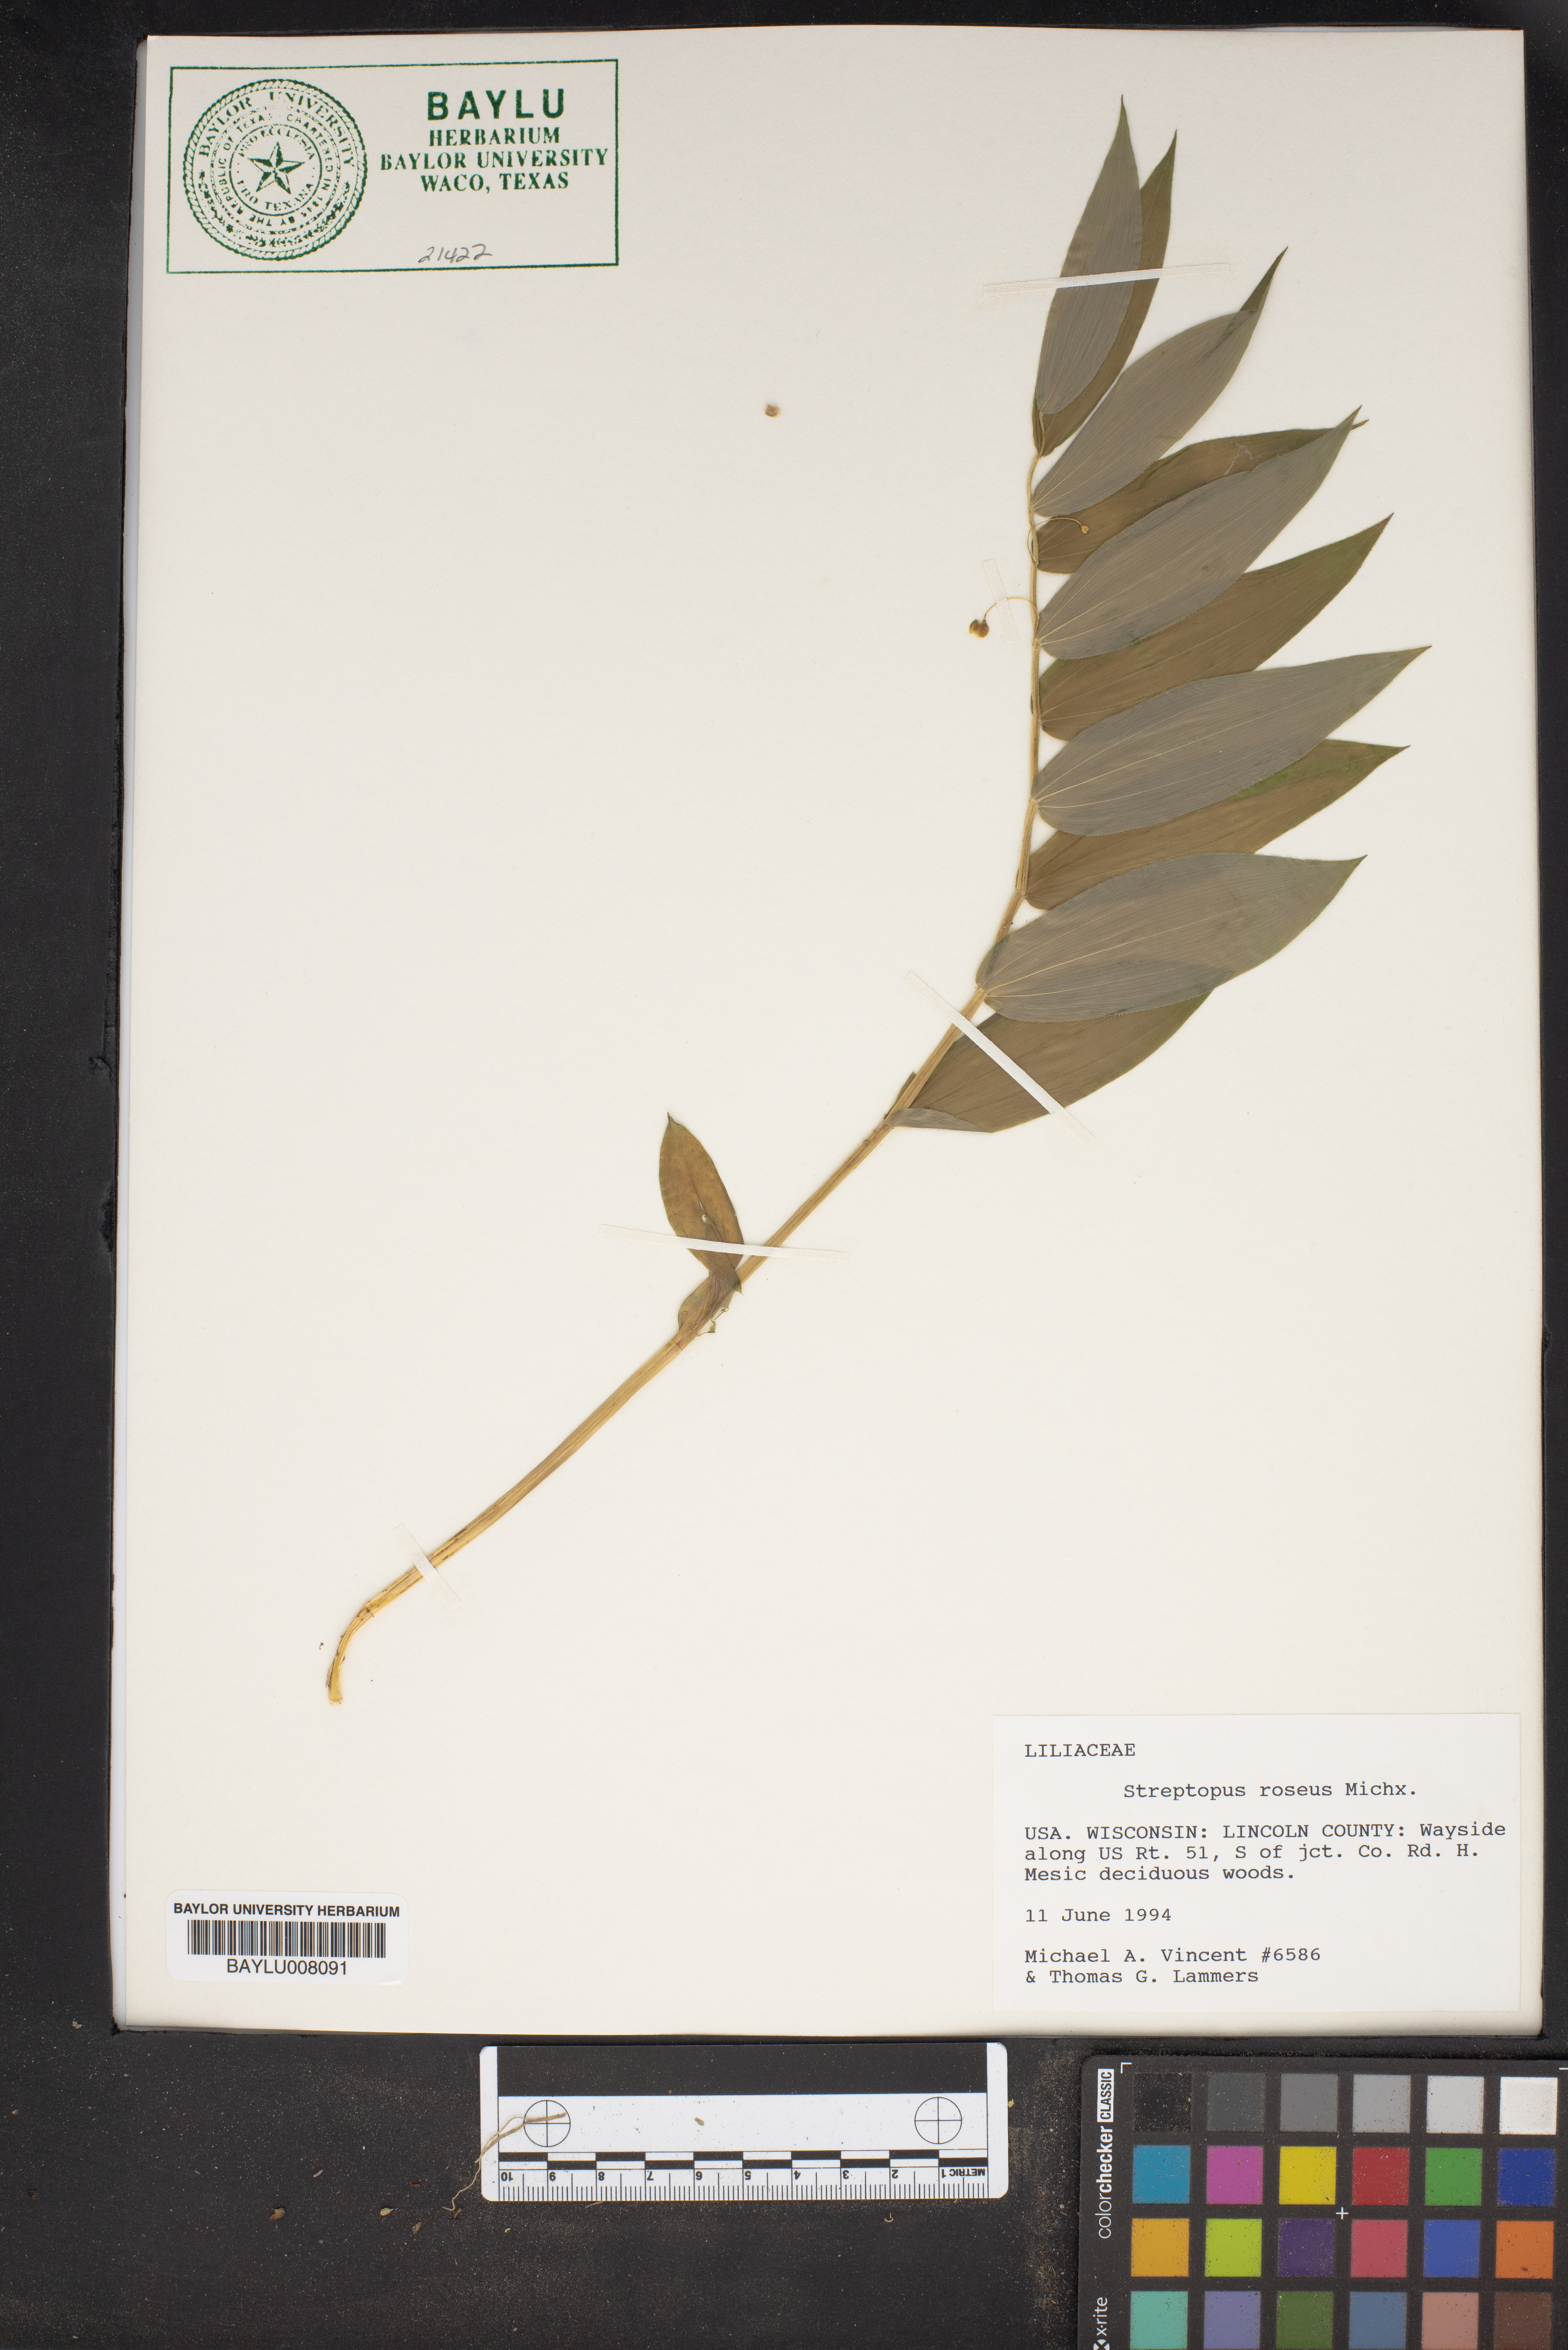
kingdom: Plantae
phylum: Tracheophyta
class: Liliopsida
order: Liliales
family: Liliaceae
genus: Streptopus
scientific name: Streptopus lanceolatus
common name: Rose mandarin
